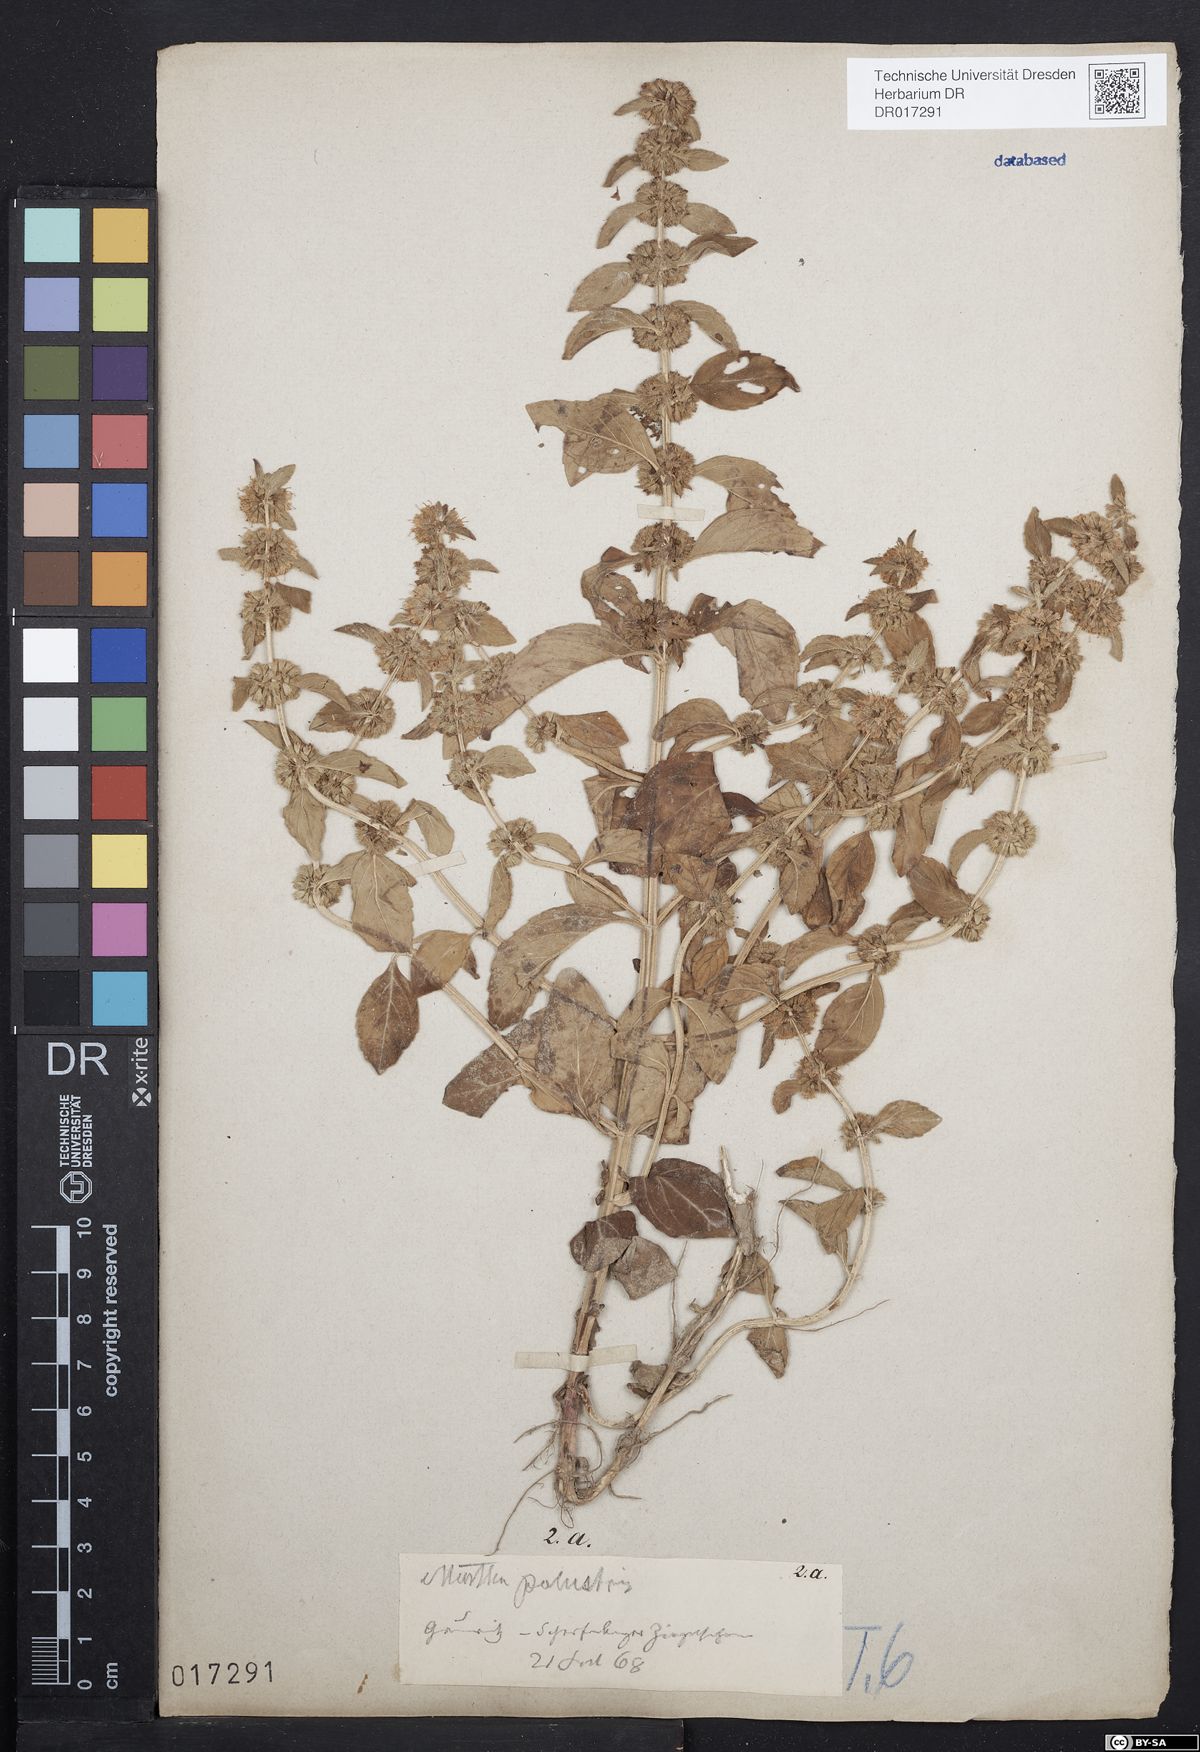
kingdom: Plantae
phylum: Tracheophyta
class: Magnoliopsida
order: Lamiales
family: Lamiaceae
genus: Mentha
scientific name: Mentha verticillata
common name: Mint
